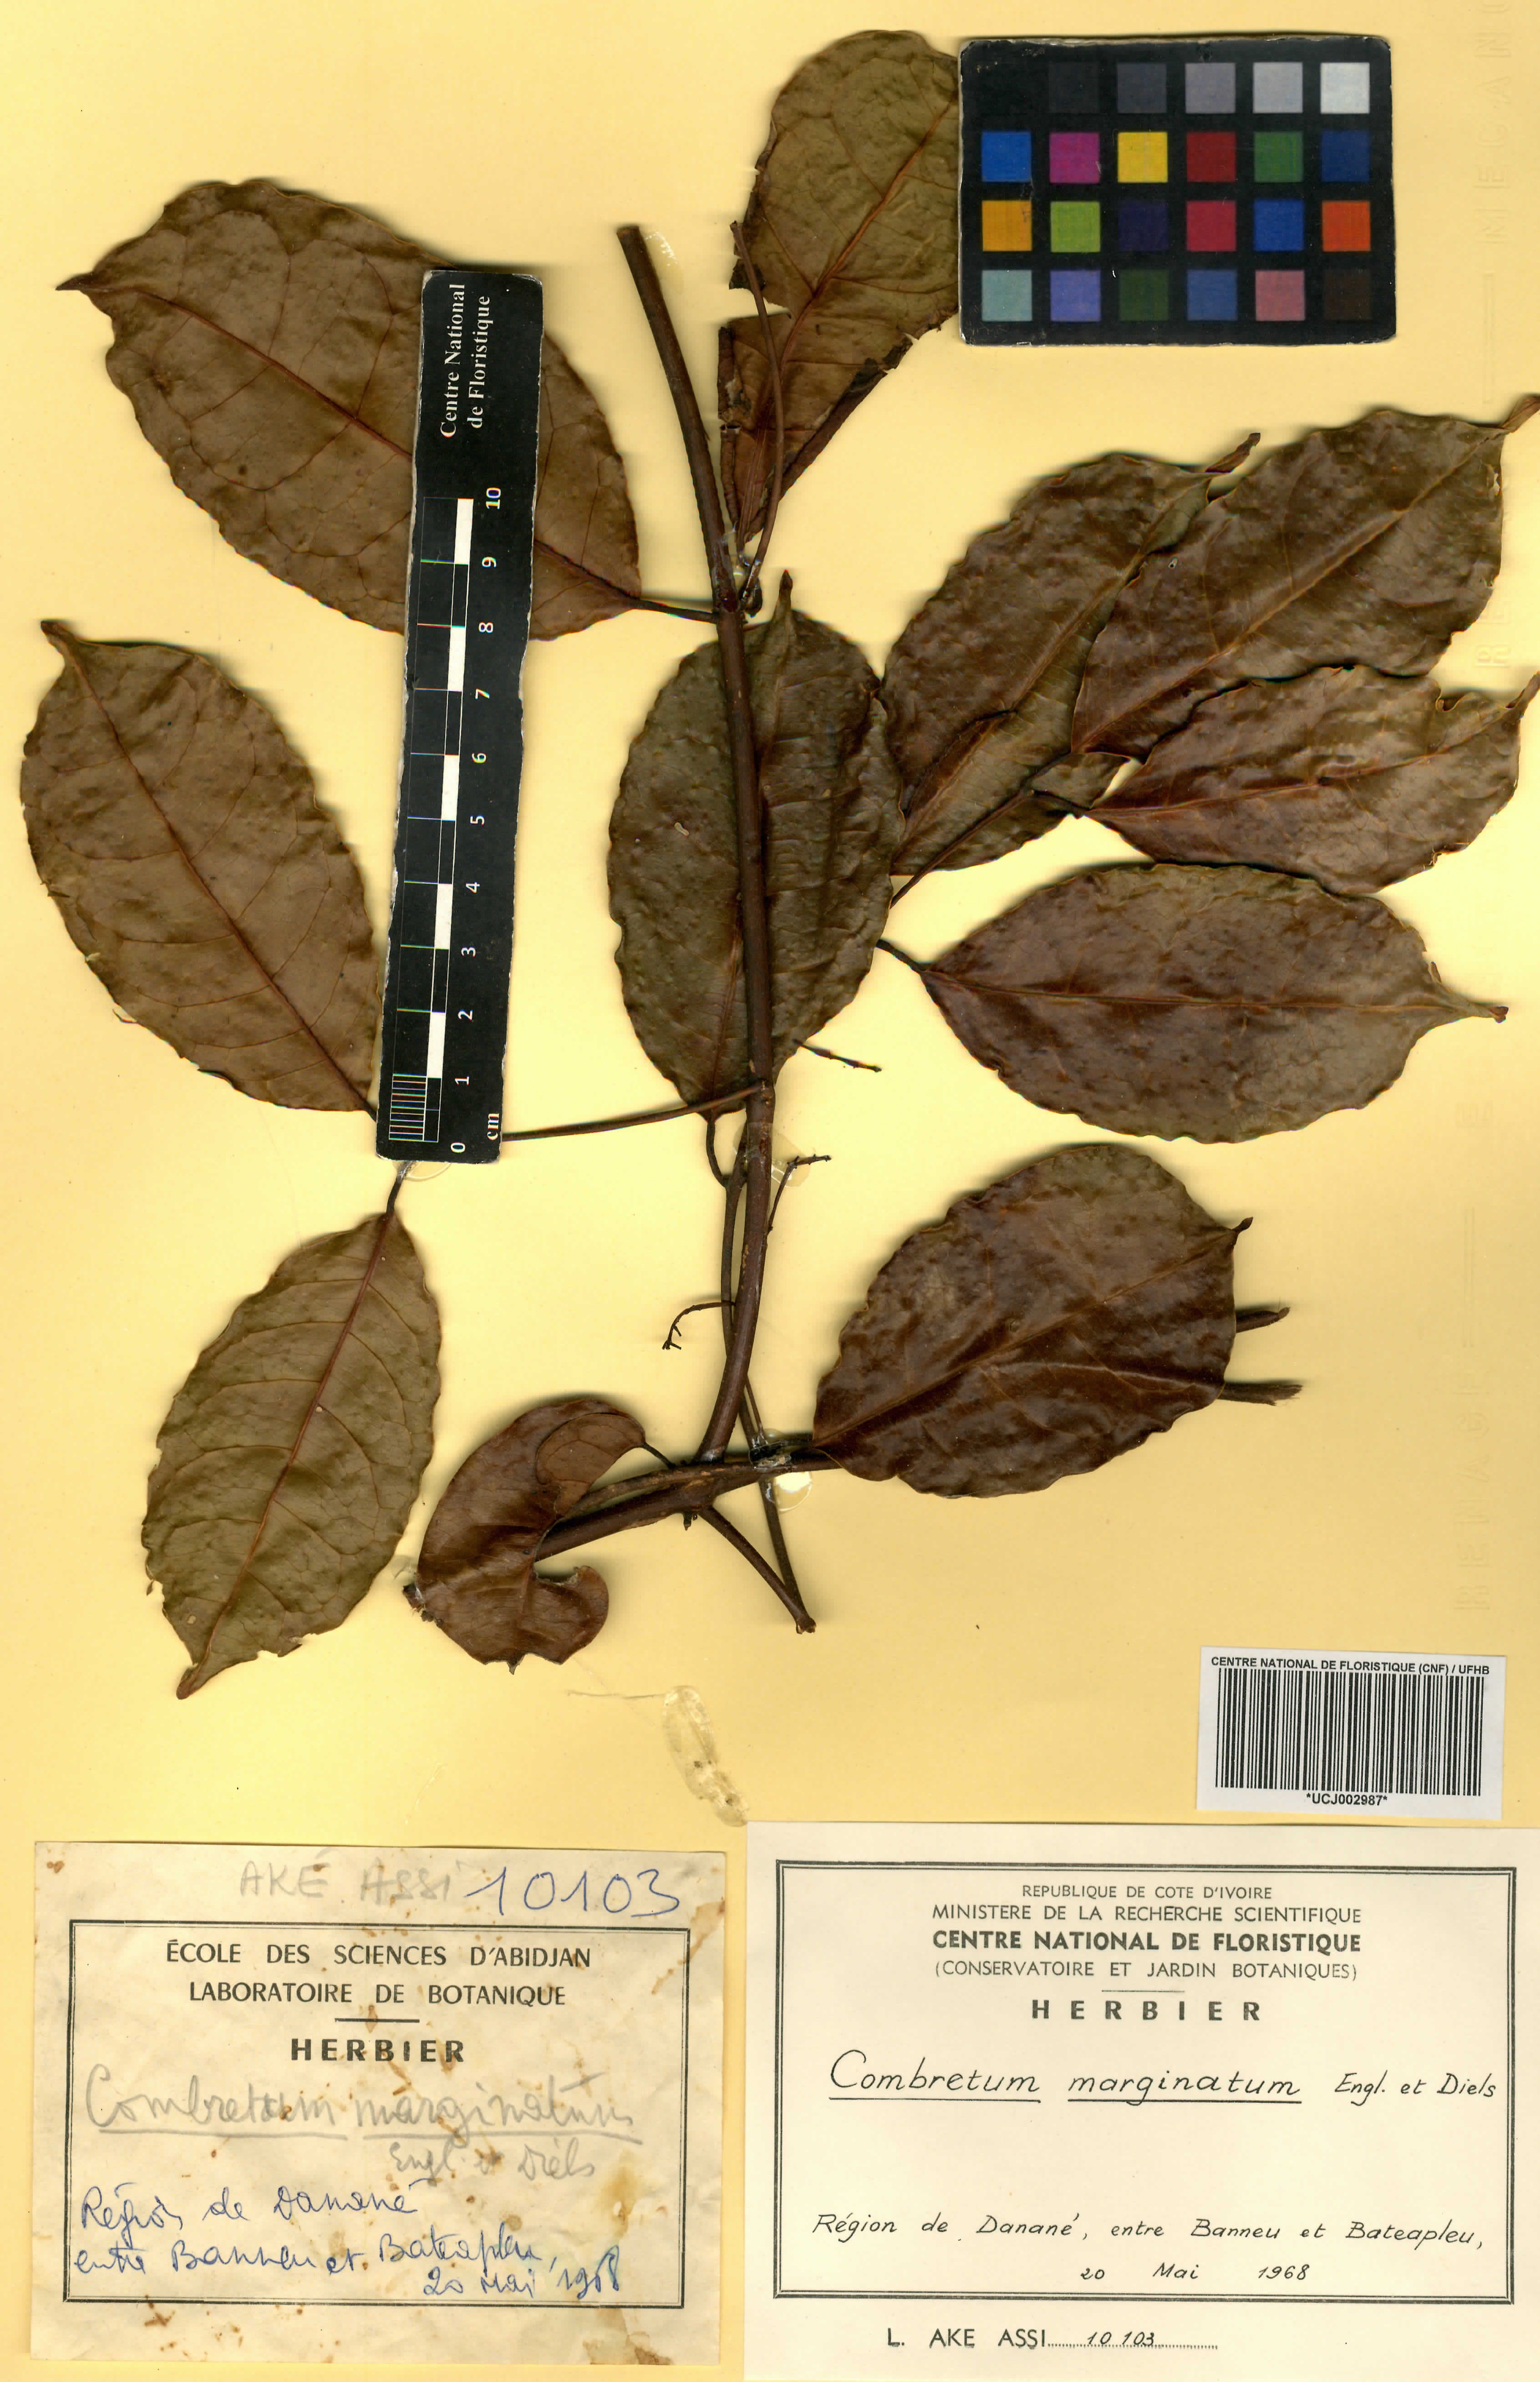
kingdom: Plantae
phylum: Tracheophyta
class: Magnoliopsida
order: Myrtales
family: Combretaceae
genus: Combretum
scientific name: Combretum marginatum
